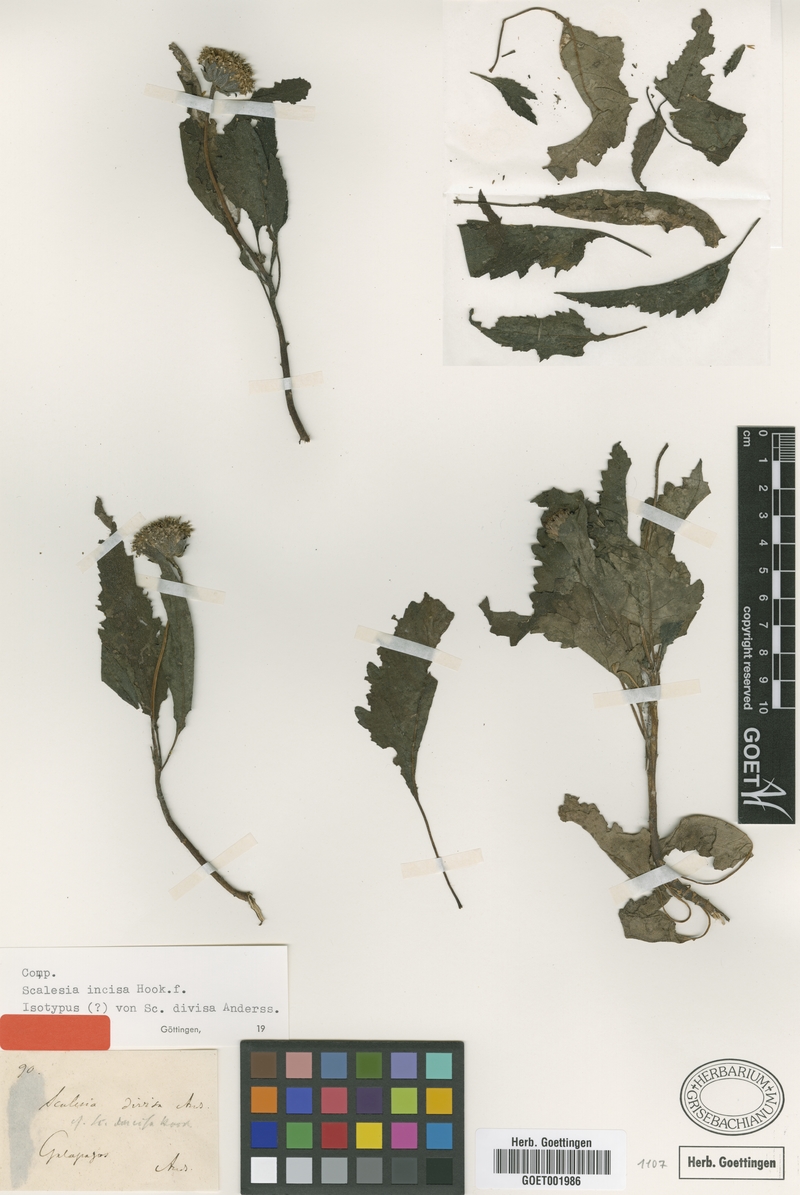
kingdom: Plantae
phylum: Tracheophyta
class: Magnoliopsida
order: Asterales
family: Asteraceae
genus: Scalesia
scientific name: Scalesia incisa
